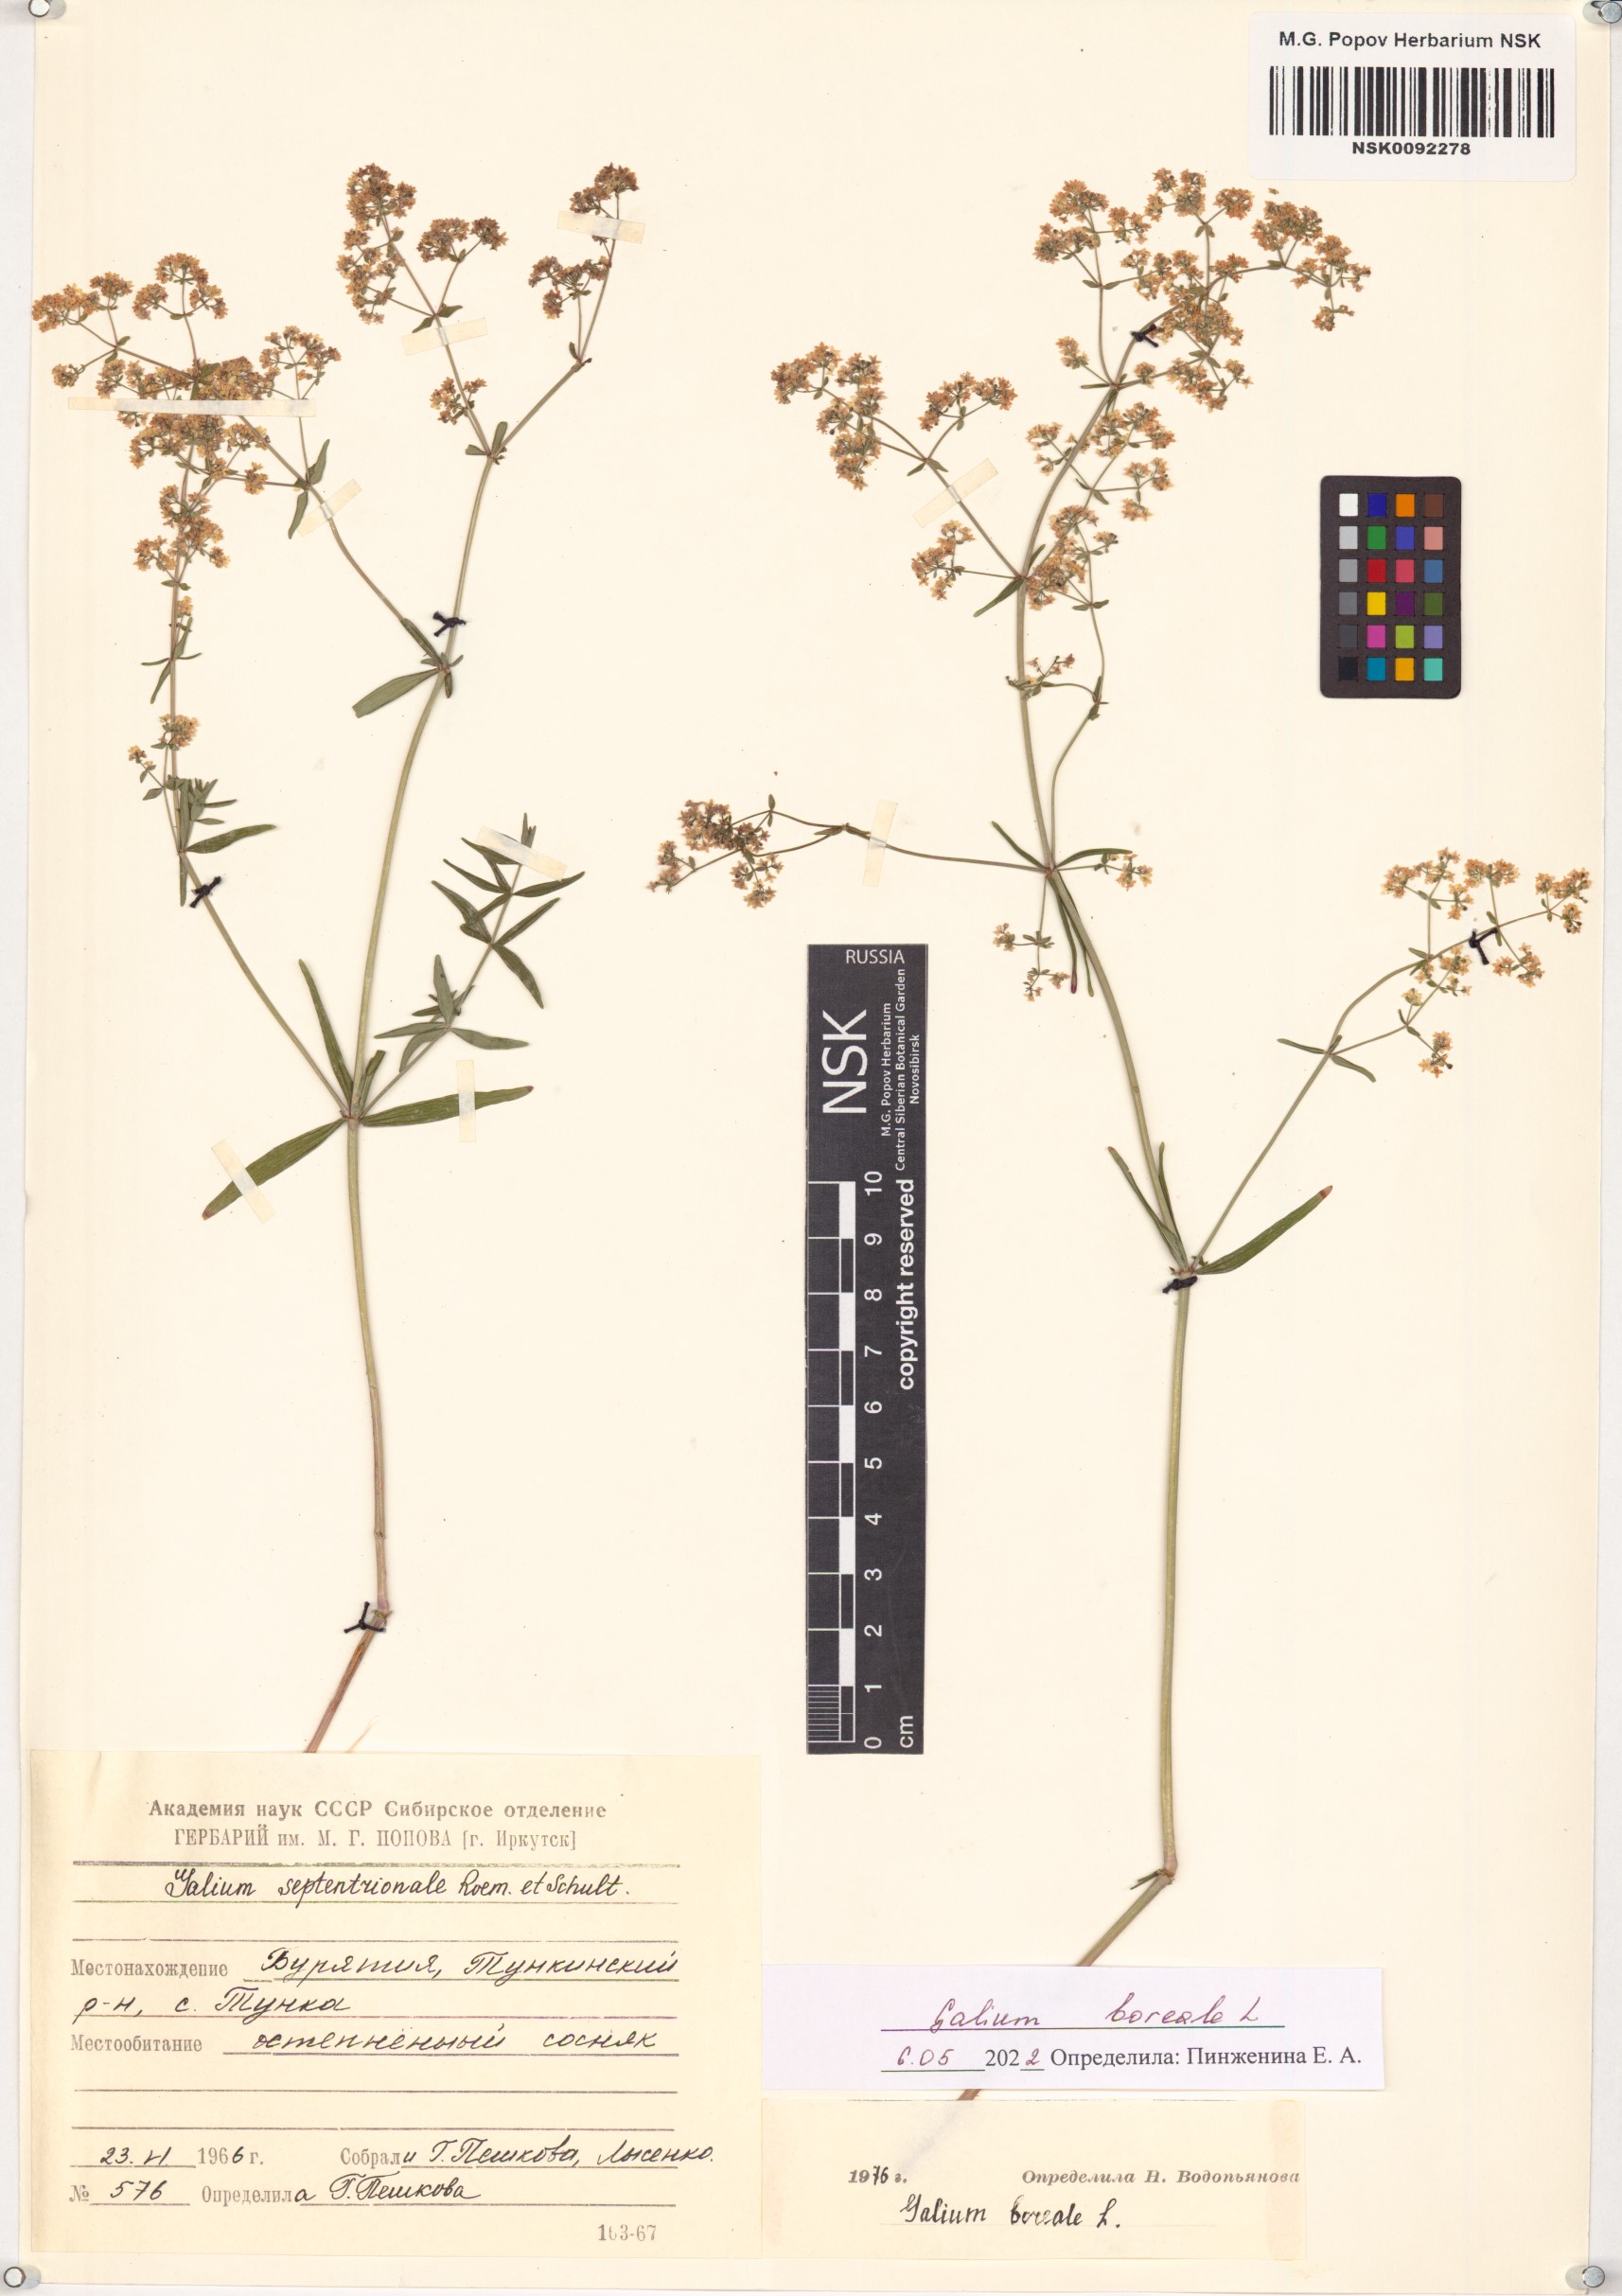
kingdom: Plantae
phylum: Tracheophyta
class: Magnoliopsida
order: Gentianales
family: Rubiaceae
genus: Galium
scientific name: Galium boreale
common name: Northern bedstraw
